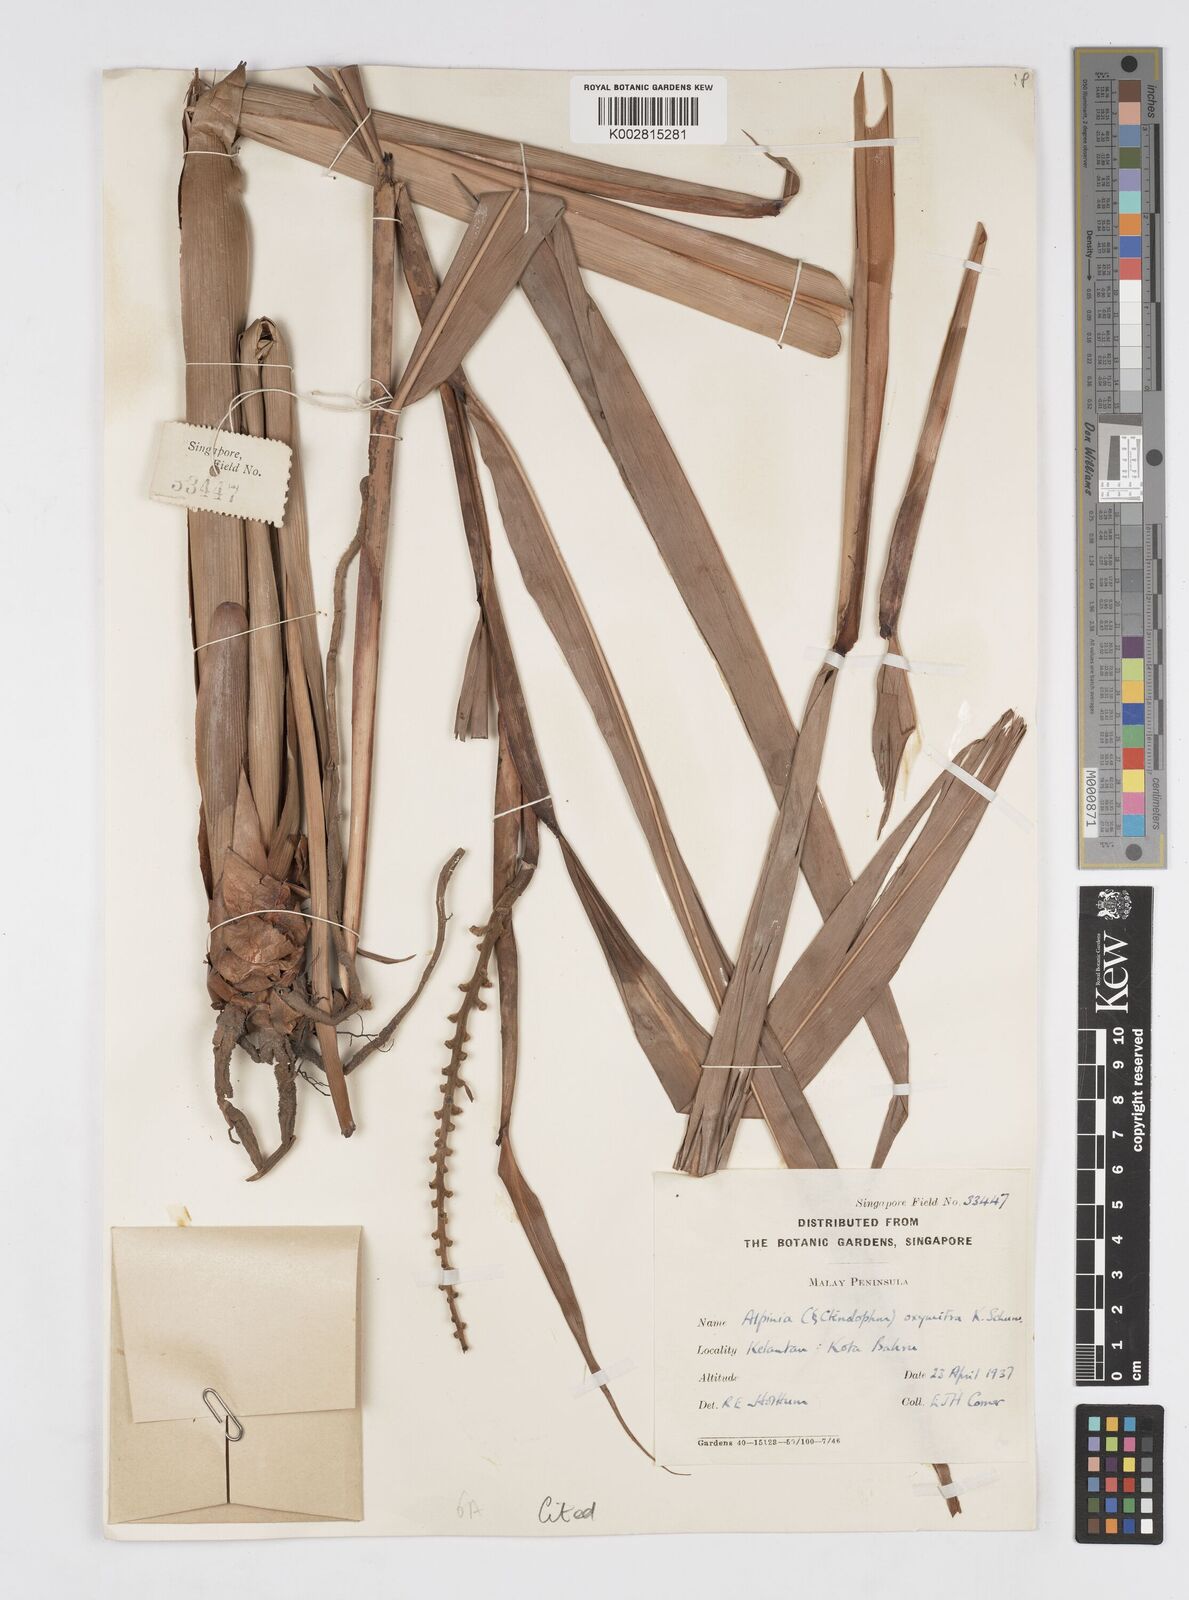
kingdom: Plantae
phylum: Tracheophyta
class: Liliopsida
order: Zingiberales
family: Zingiberaceae
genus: Alpinia
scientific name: Alpinia oxymitra
